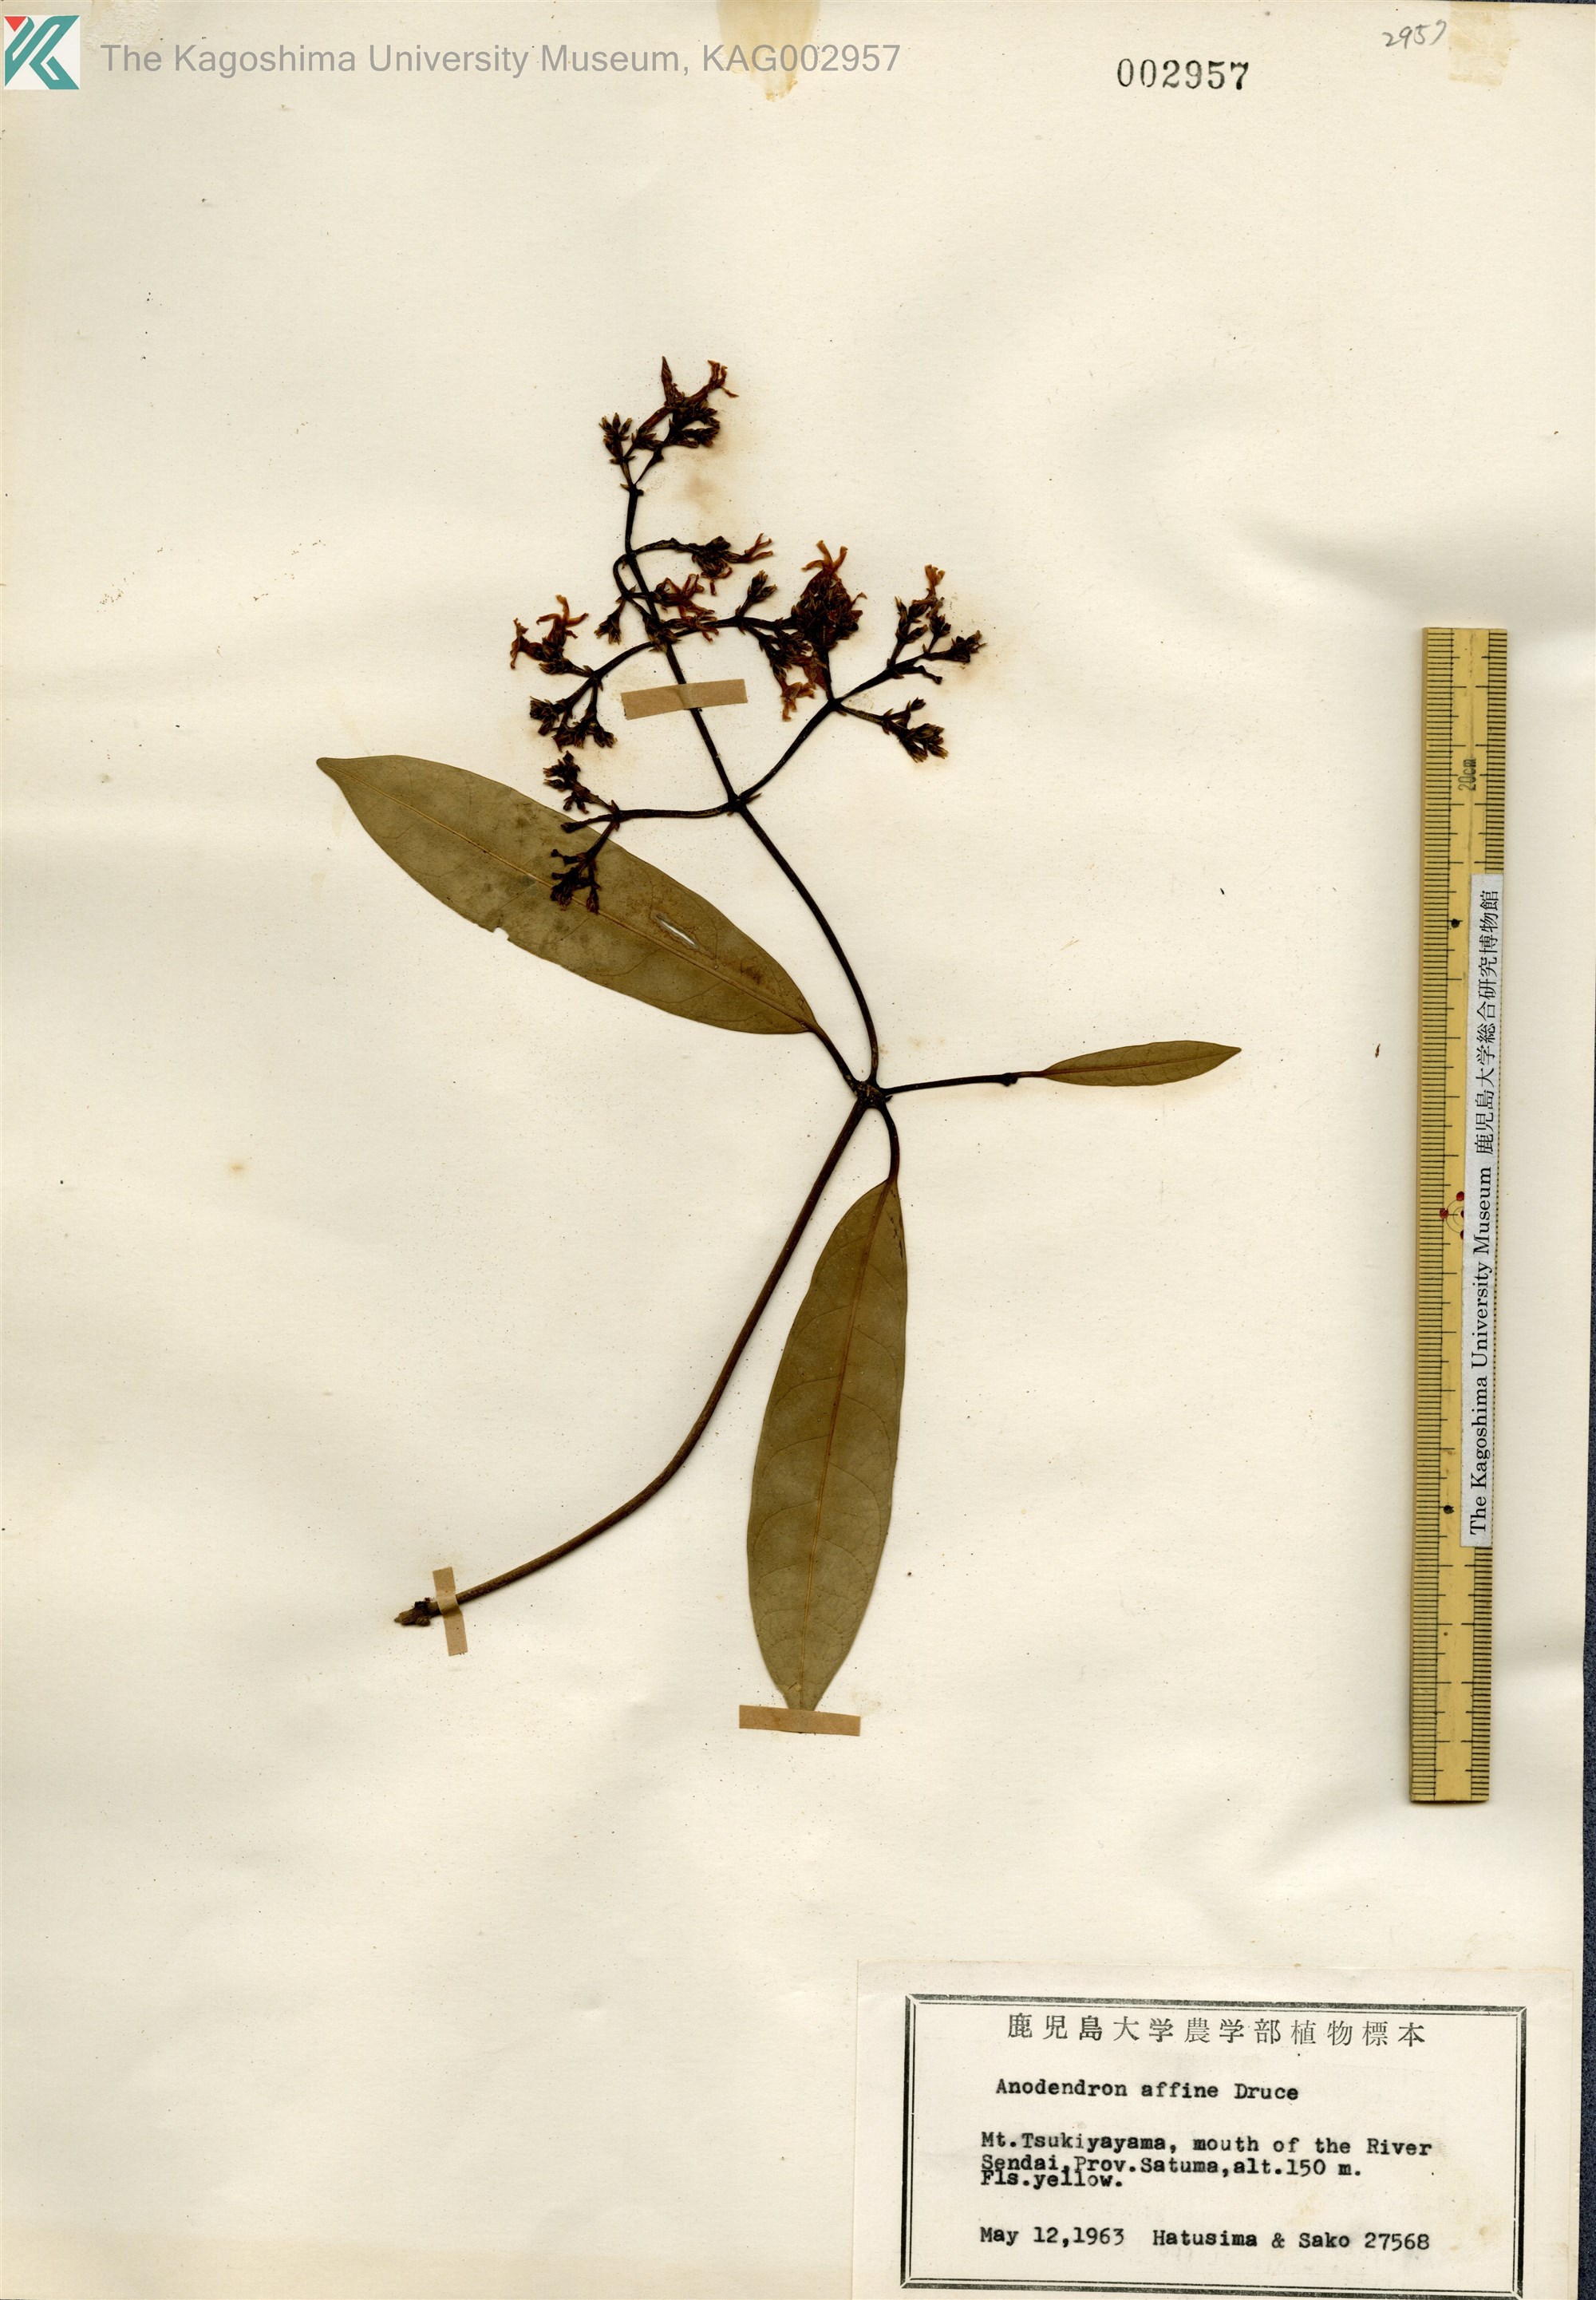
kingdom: Plantae
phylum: Tracheophyta
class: Magnoliopsida
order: Gentianales
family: Apocynaceae
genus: Anodendron
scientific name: Anodendron affine
